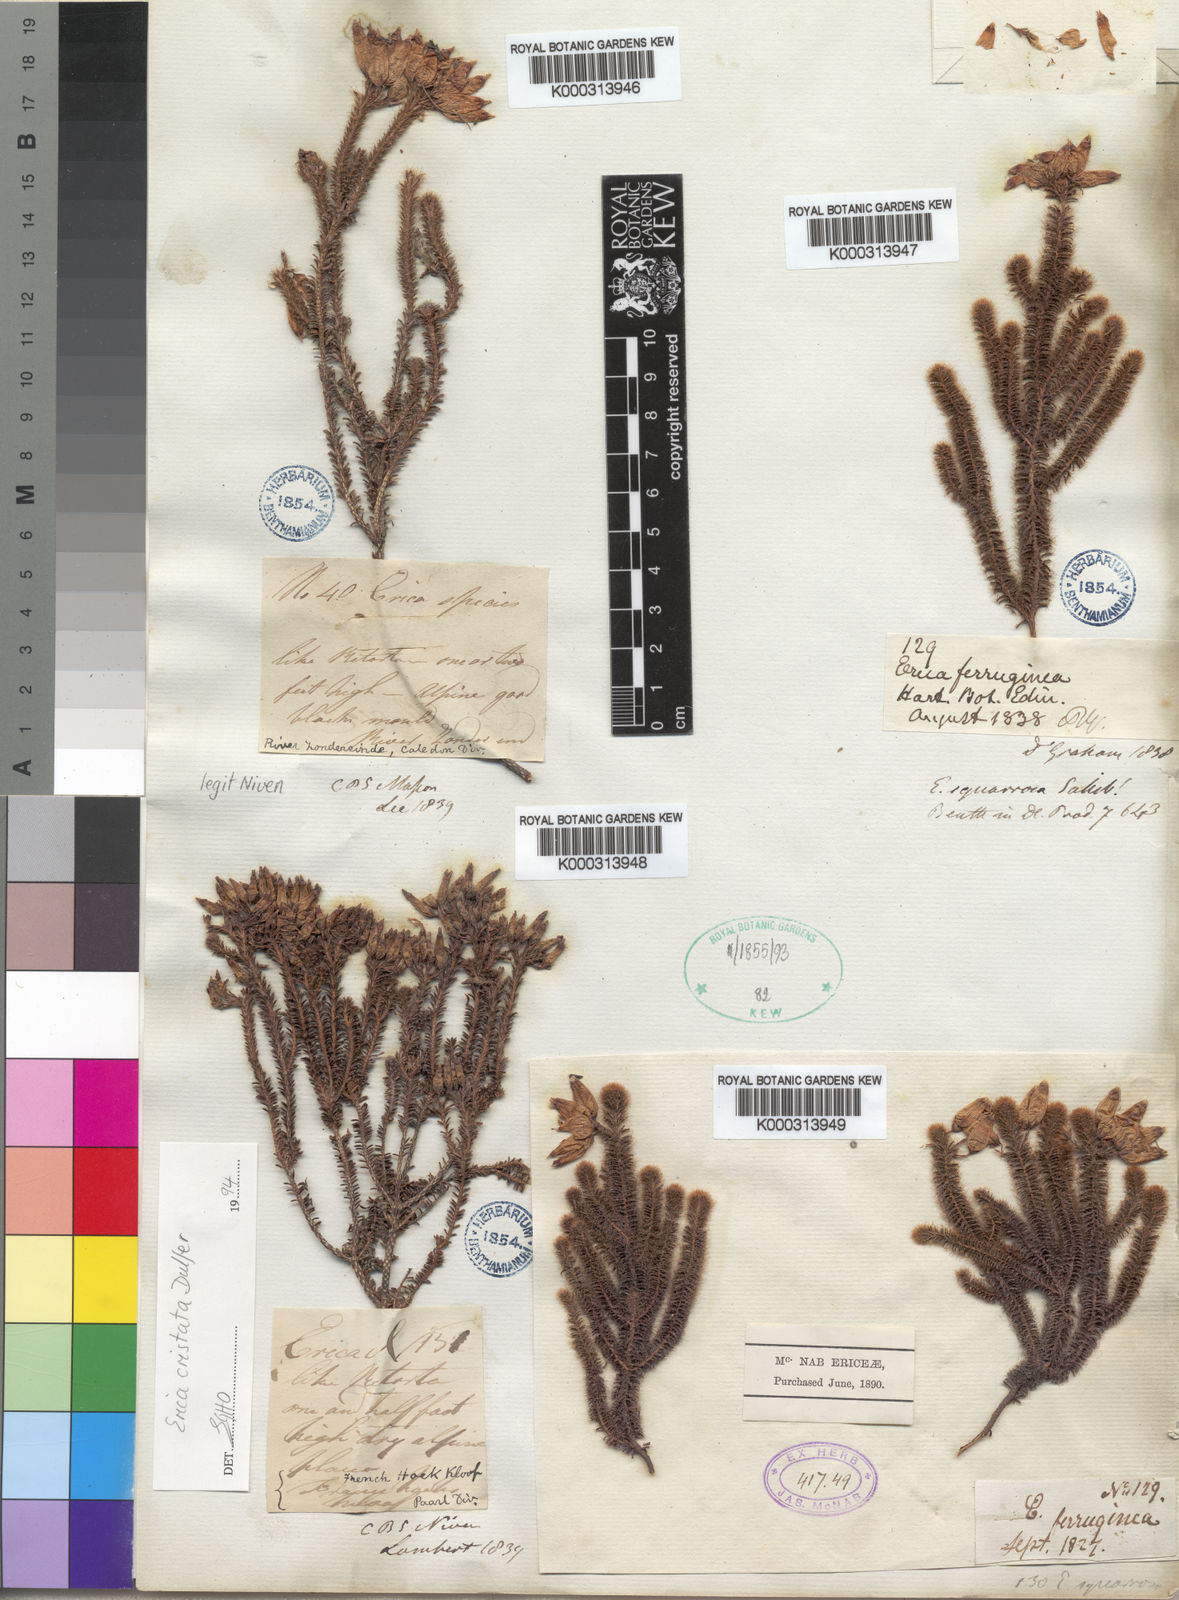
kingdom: Plantae
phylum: Tracheophyta
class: Magnoliopsida
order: Ericales
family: Ericaceae
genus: Erica
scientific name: Erica squarrosa
